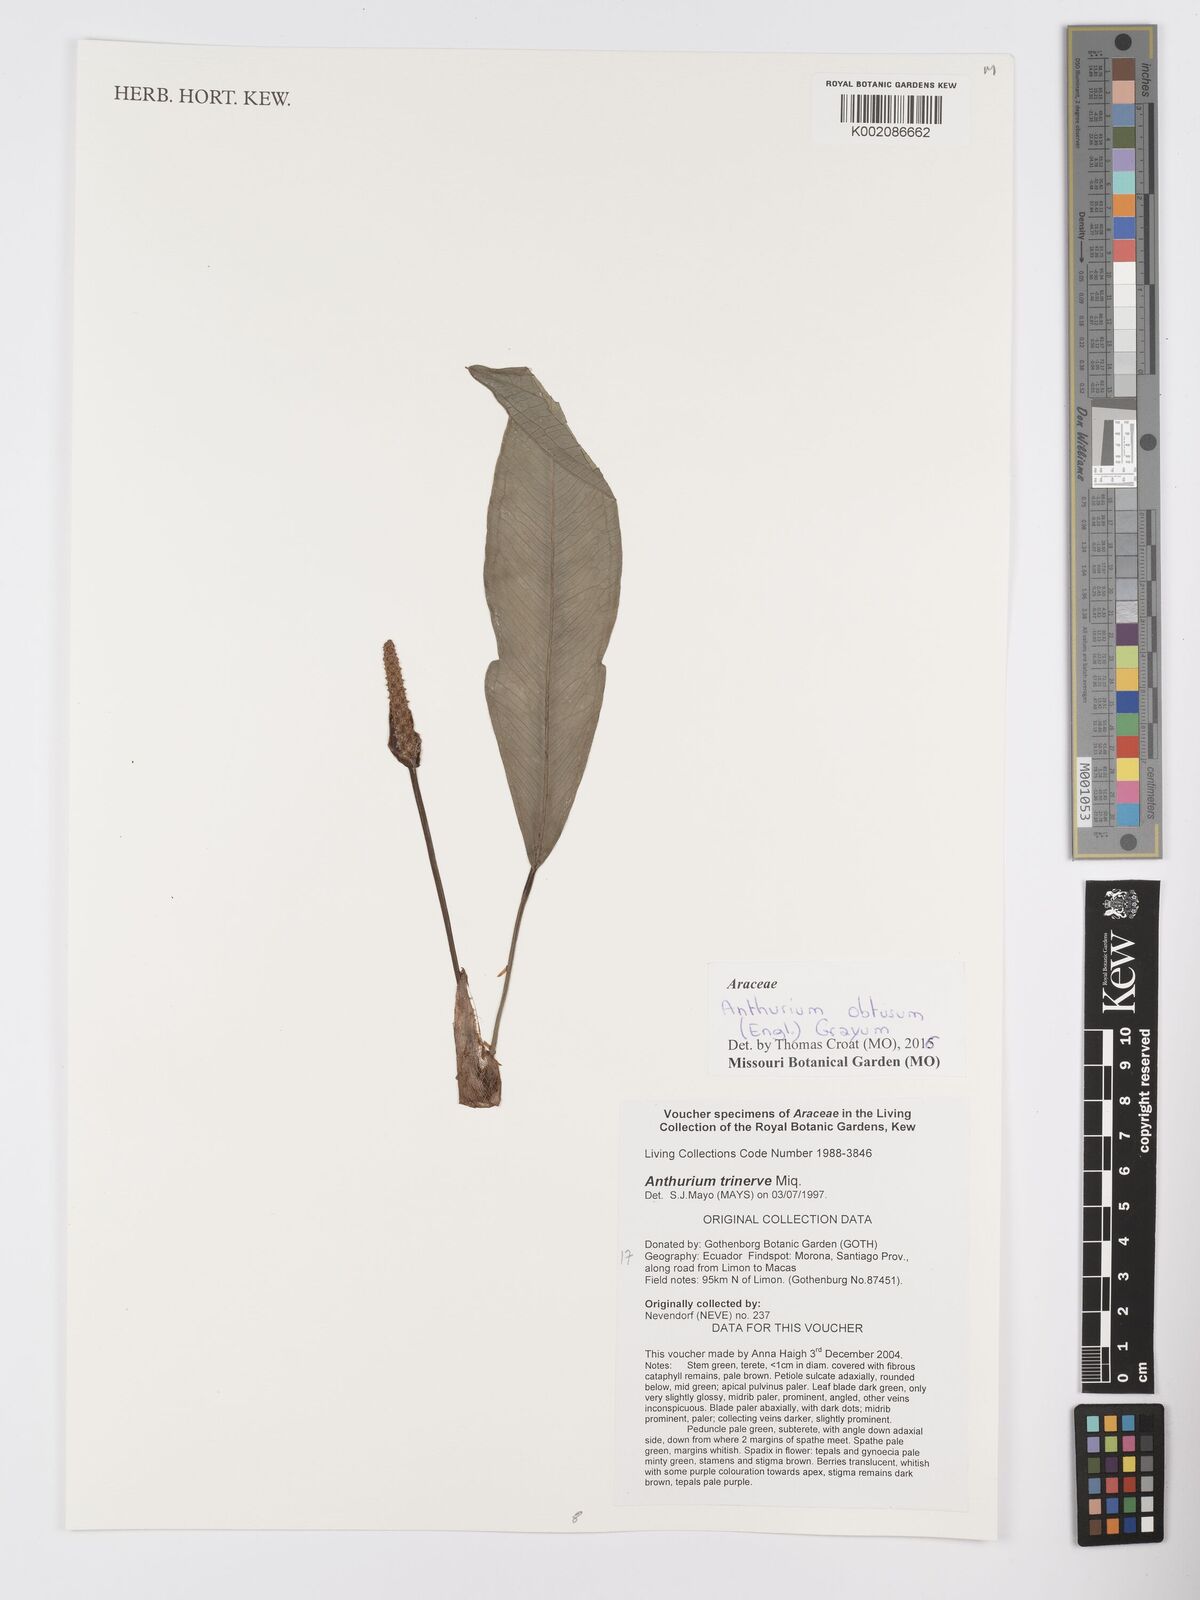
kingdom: Plantae
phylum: Tracheophyta
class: Liliopsida
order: Alismatales
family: Araceae
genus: Anthurium
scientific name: Anthurium obtusum
